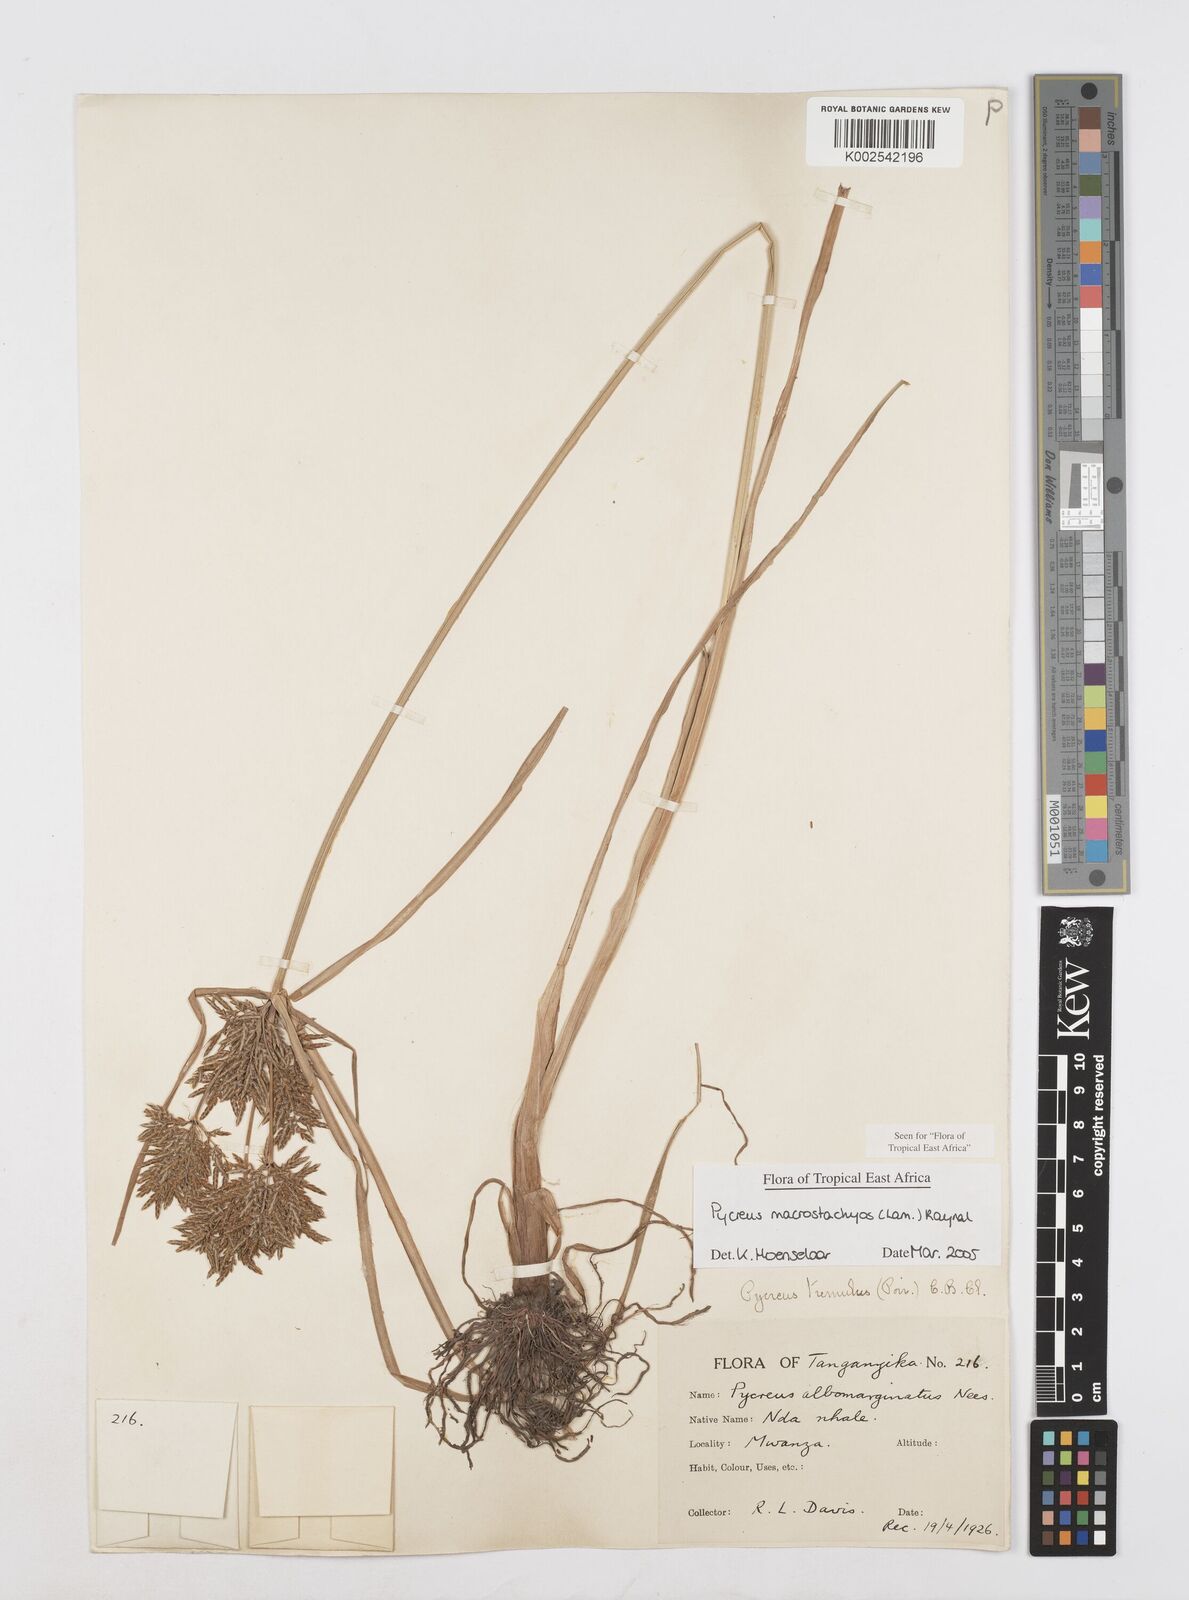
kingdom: Plantae
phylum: Tracheophyta
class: Liliopsida
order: Poales
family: Cyperaceae
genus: Cyperus
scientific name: Cyperus macrostachyos
